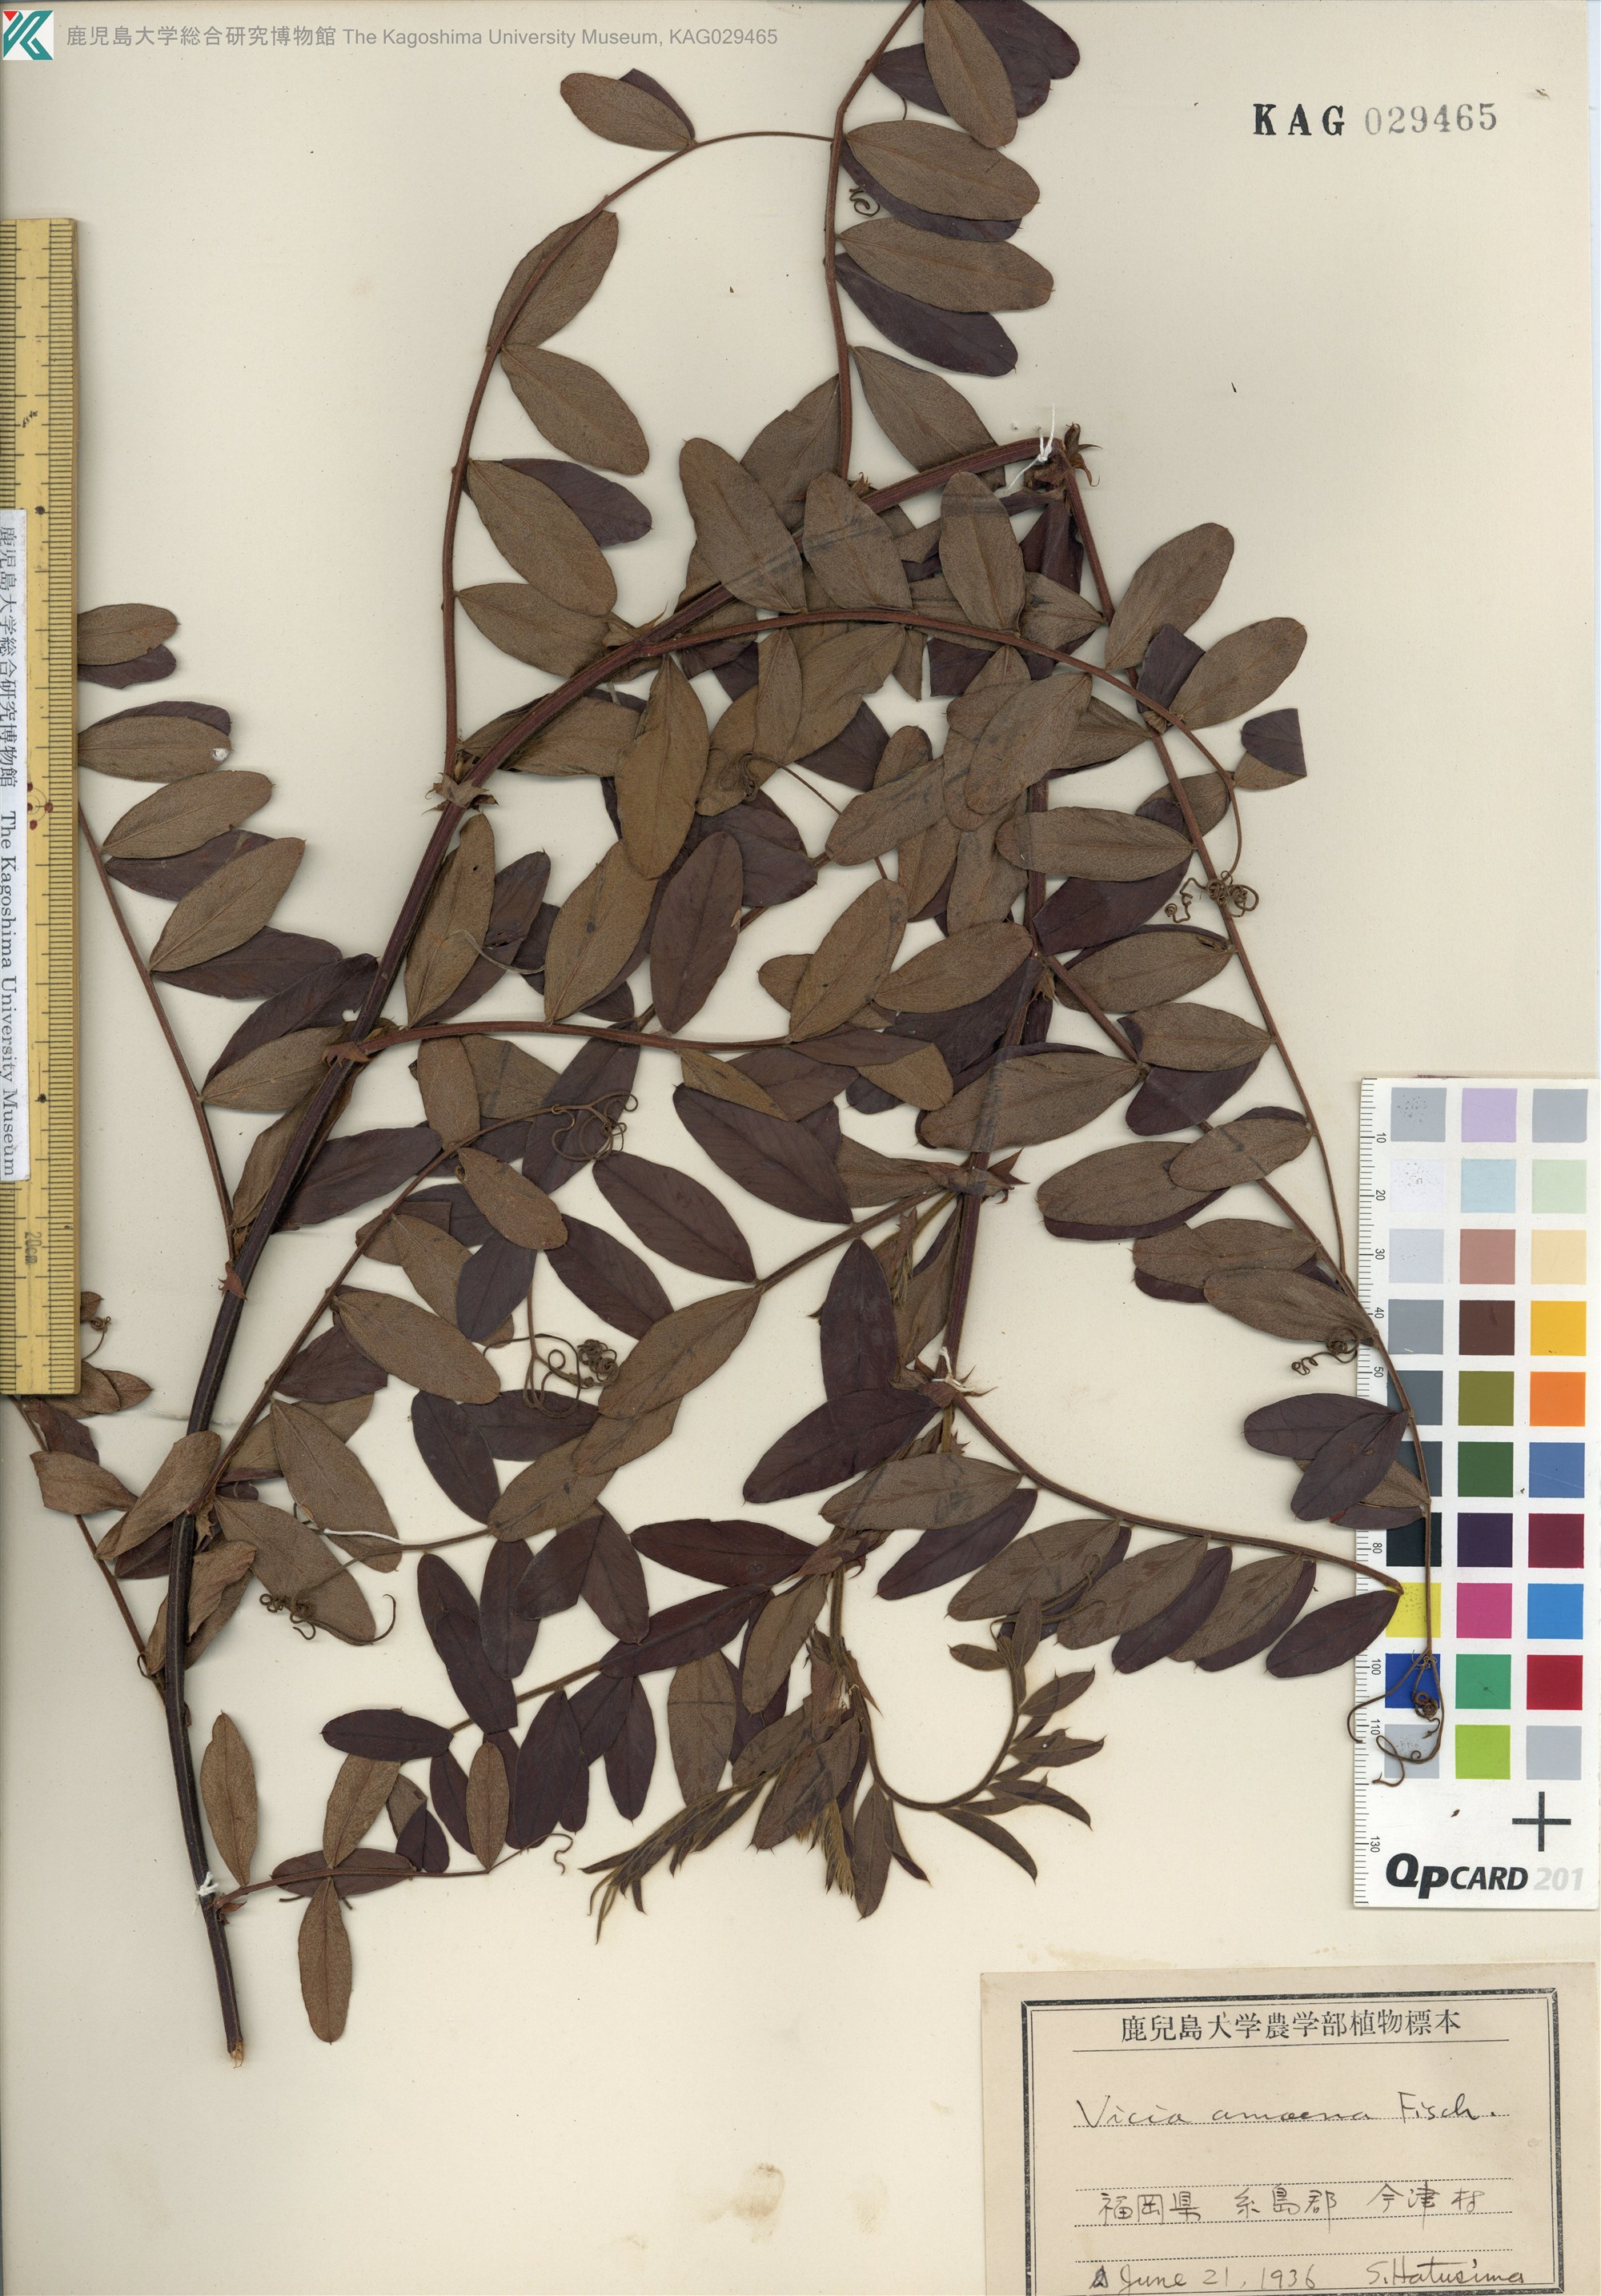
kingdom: Plantae
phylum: Tracheophyta
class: Magnoliopsida
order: Fabales
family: Fabaceae
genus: Vicia
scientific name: Vicia amoena
